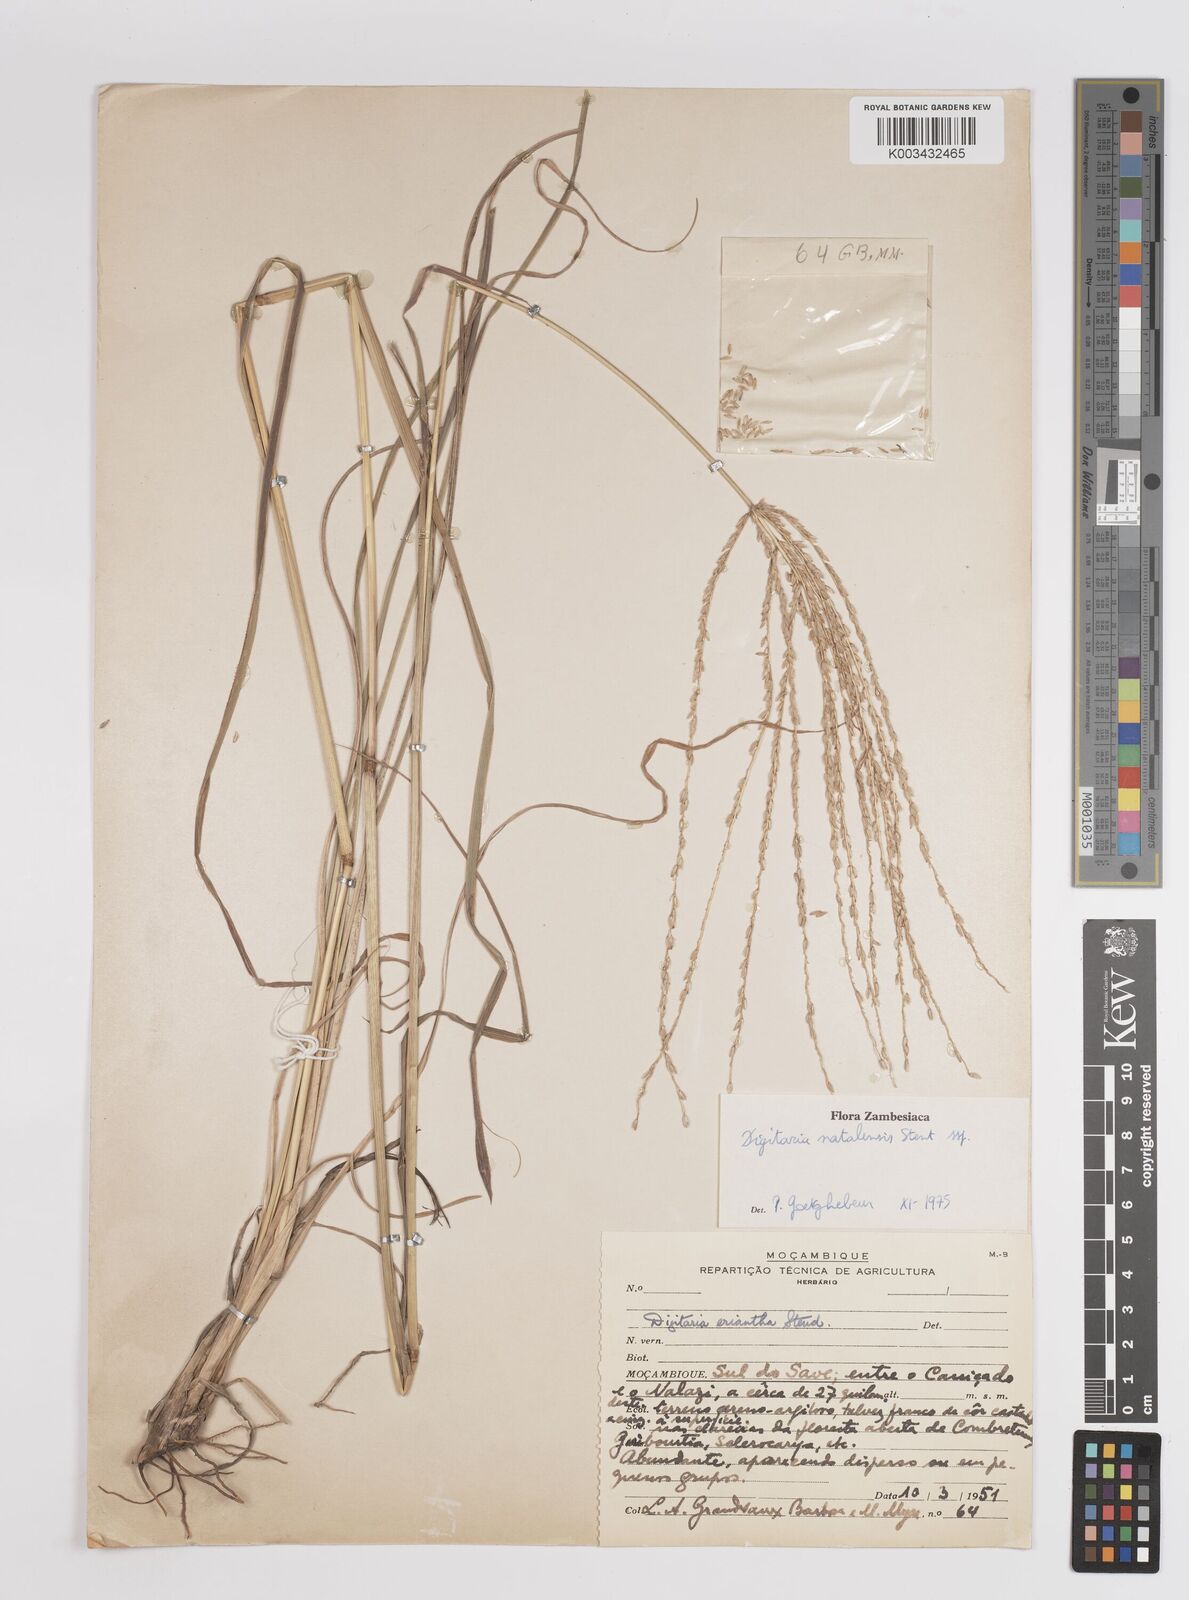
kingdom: Plantae
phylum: Tracheophyta
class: Liliopsida
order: Poales
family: Poaceae
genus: Digitaria
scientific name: Digitaria natalensis
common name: Coast finger grass
